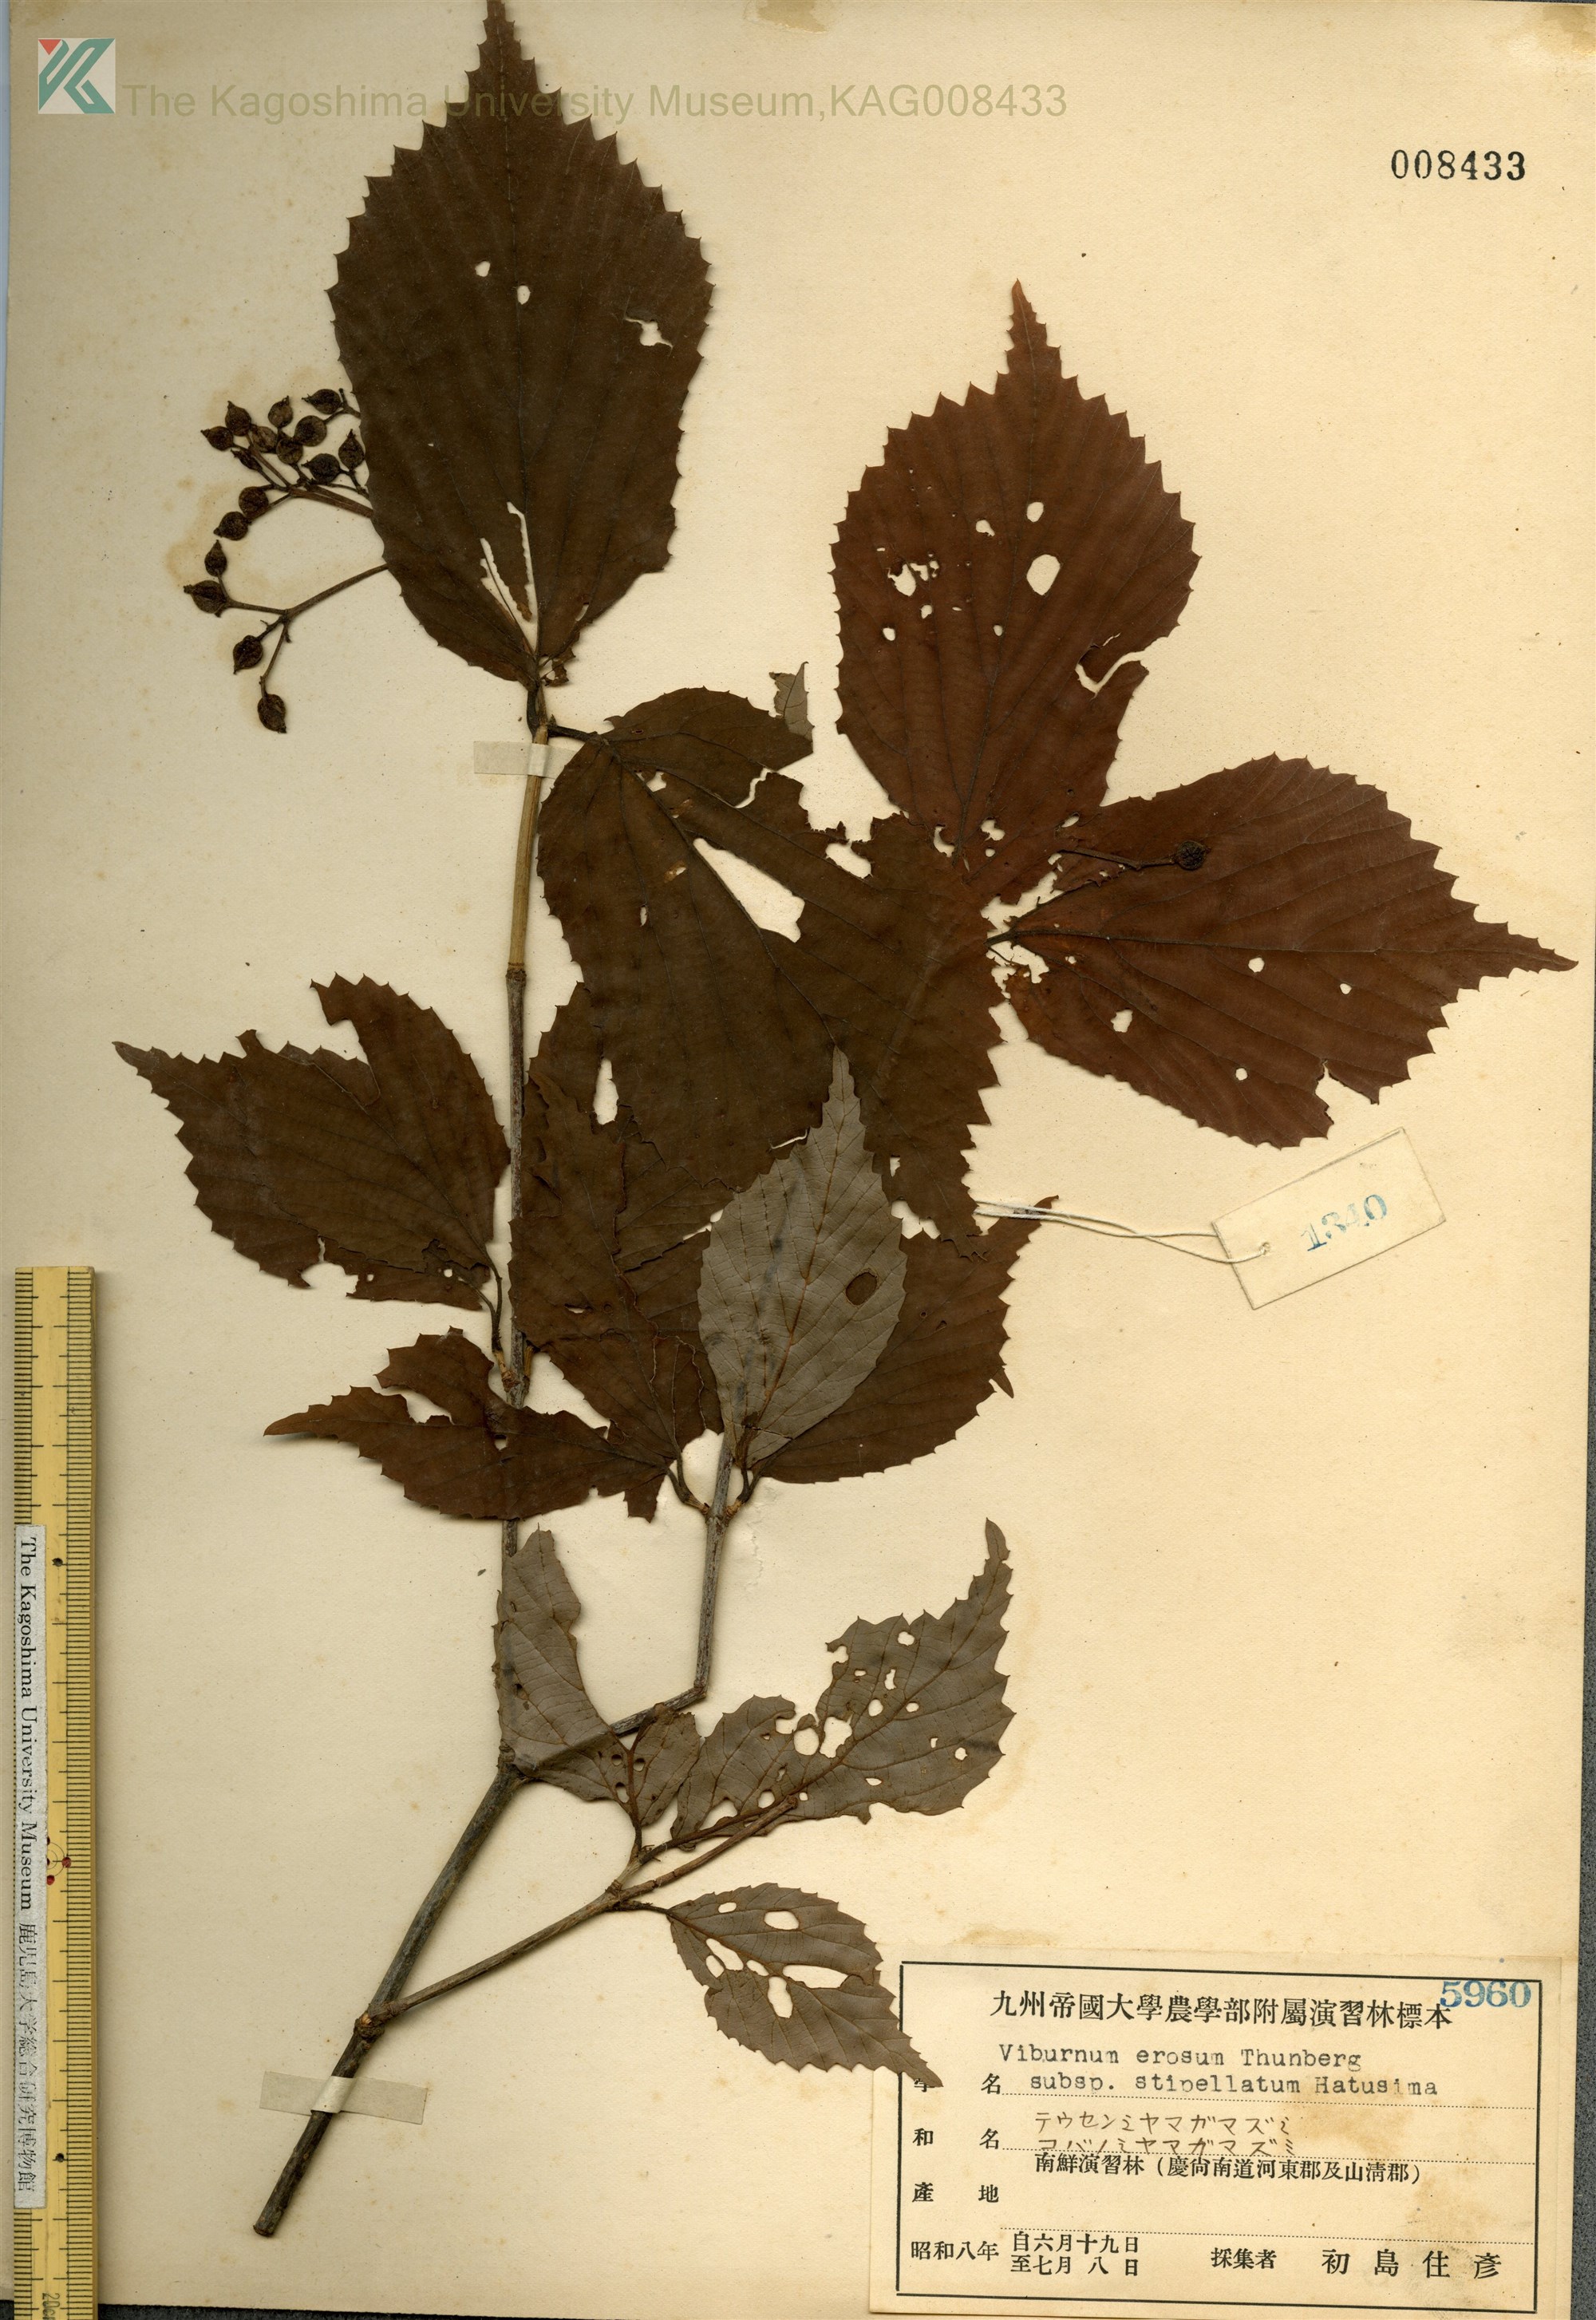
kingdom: Plantae
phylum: Tracheophyta
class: Magnoliopsida
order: Dipsacales
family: Viburnaceae
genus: Viburnum
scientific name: Viburnum erosum
